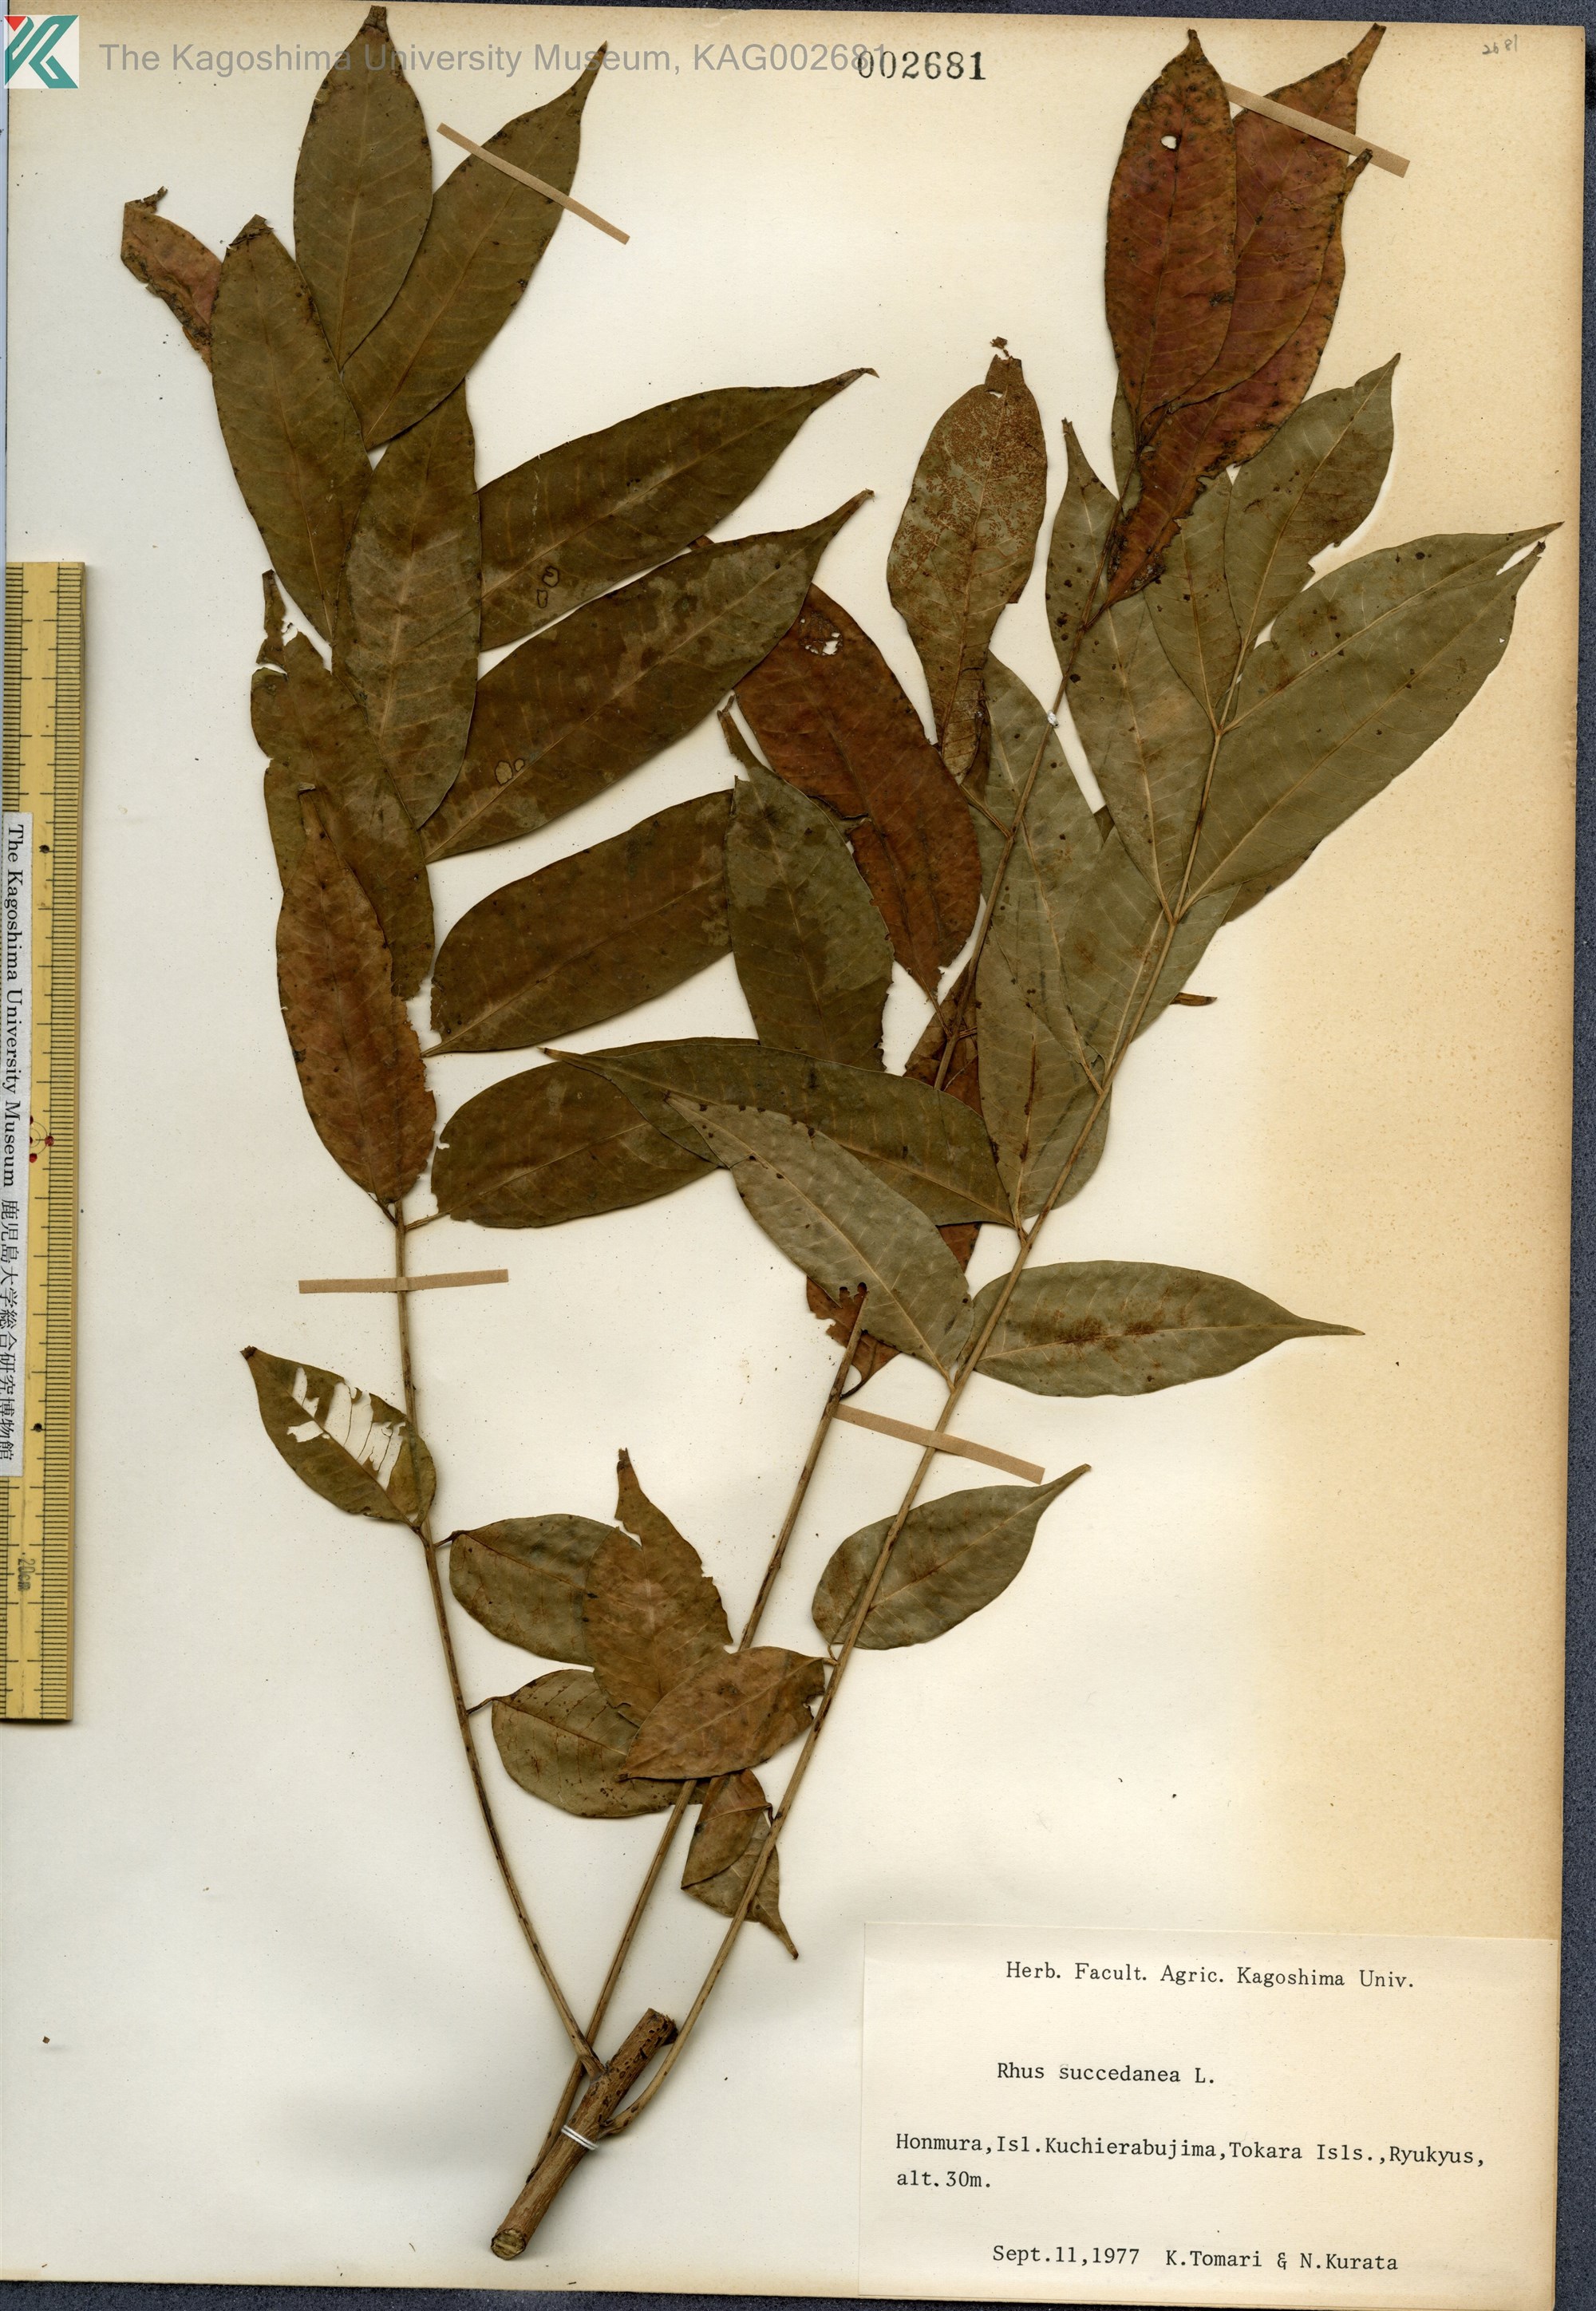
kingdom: Plantae
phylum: Tracheophyta
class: Magnoliopsida
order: Sapindales
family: Anacardiaceae
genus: Toxicodendron
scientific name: Toxicodendron succedaneum
